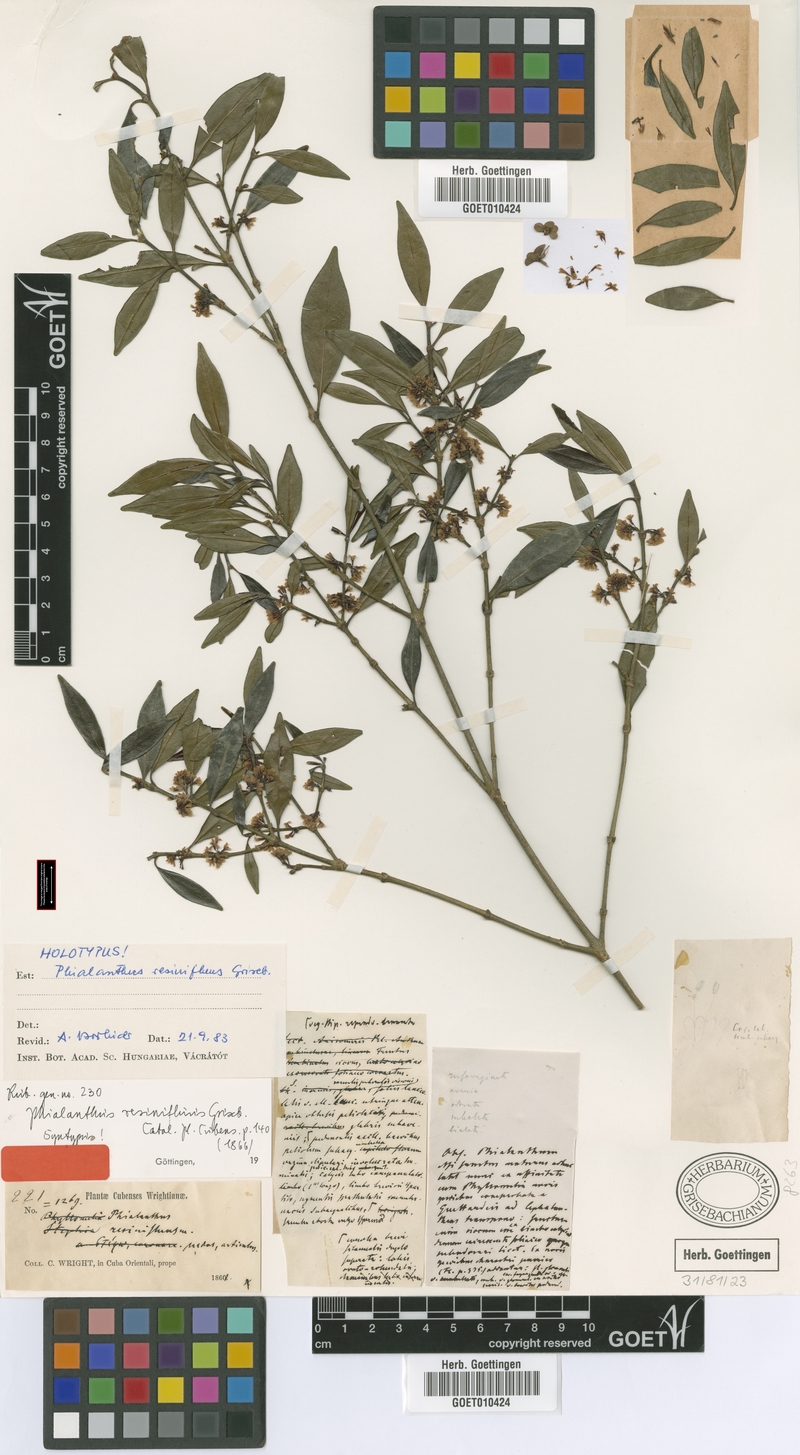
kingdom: Plantae
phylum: Tracheophyta
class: Magnoliopsida
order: Gentianales
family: Rubiaceae
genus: Phialanthus
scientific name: Phialanthus resinifluus
